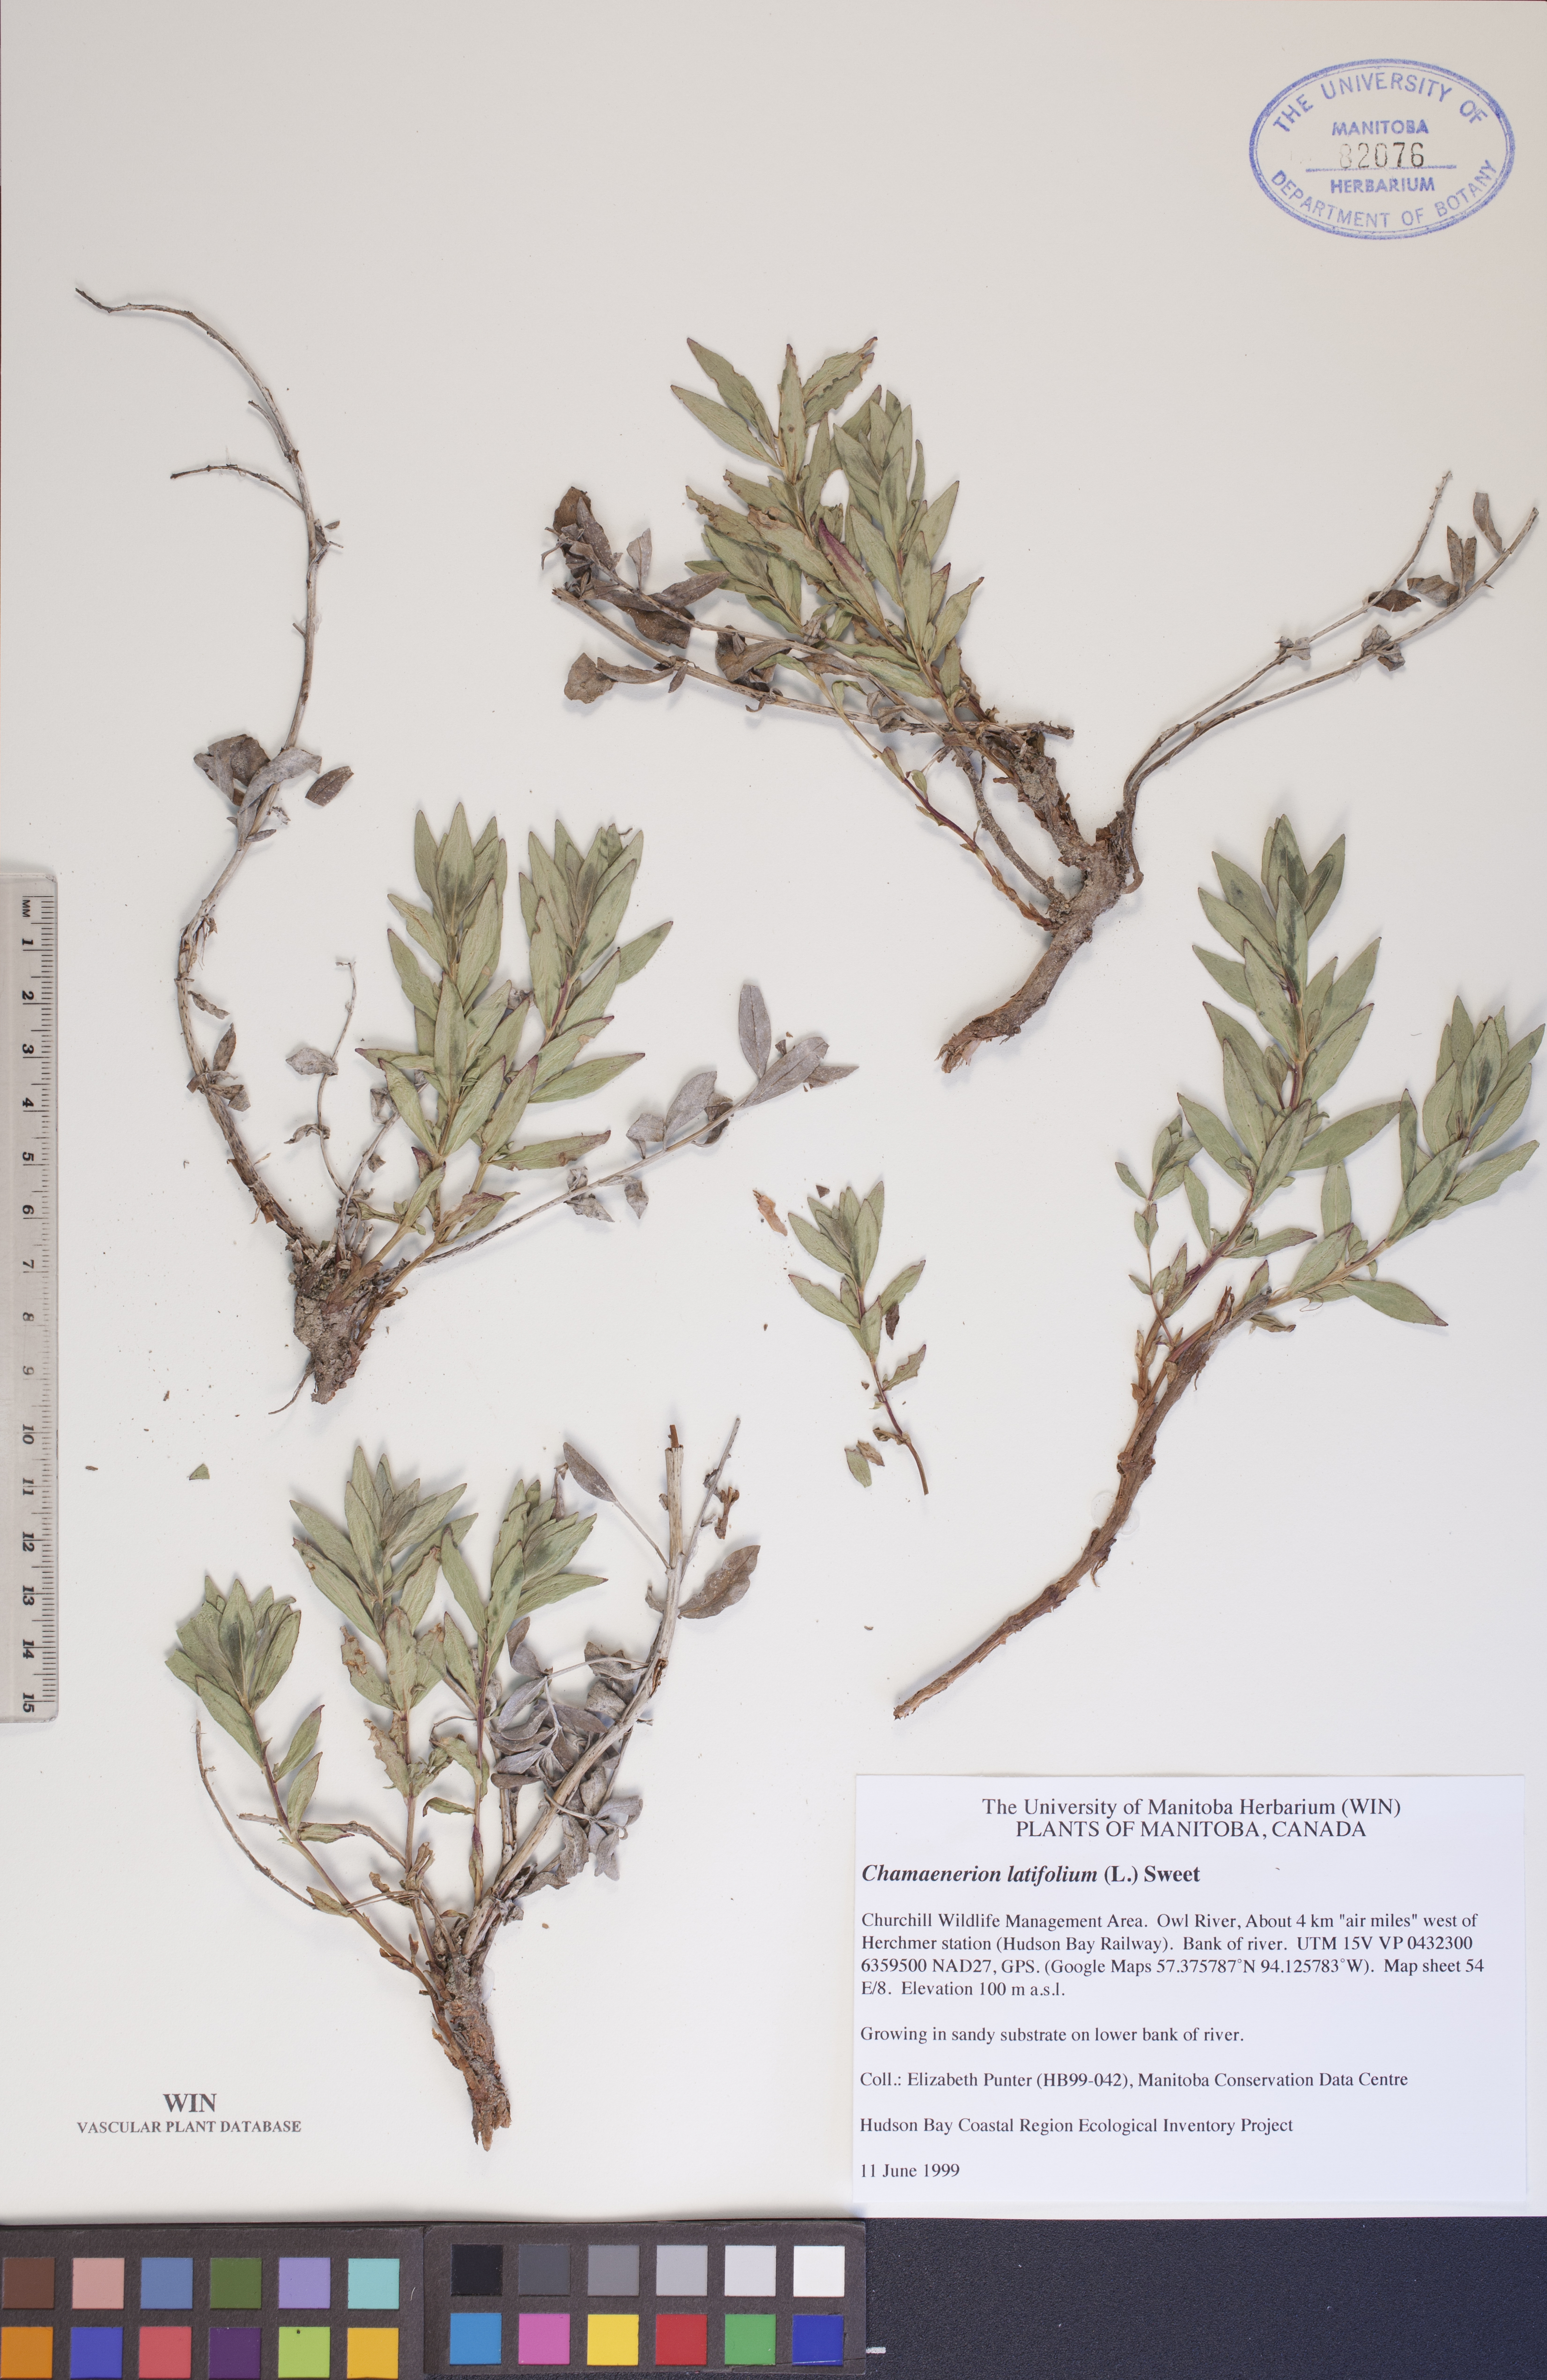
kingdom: Plantae
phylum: Tracheophyta
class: Magnoliopsida
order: Myrtales
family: Onagraceae
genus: Chamaenerion
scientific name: Chamaenerion latifolium
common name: Dwarf fireweed
